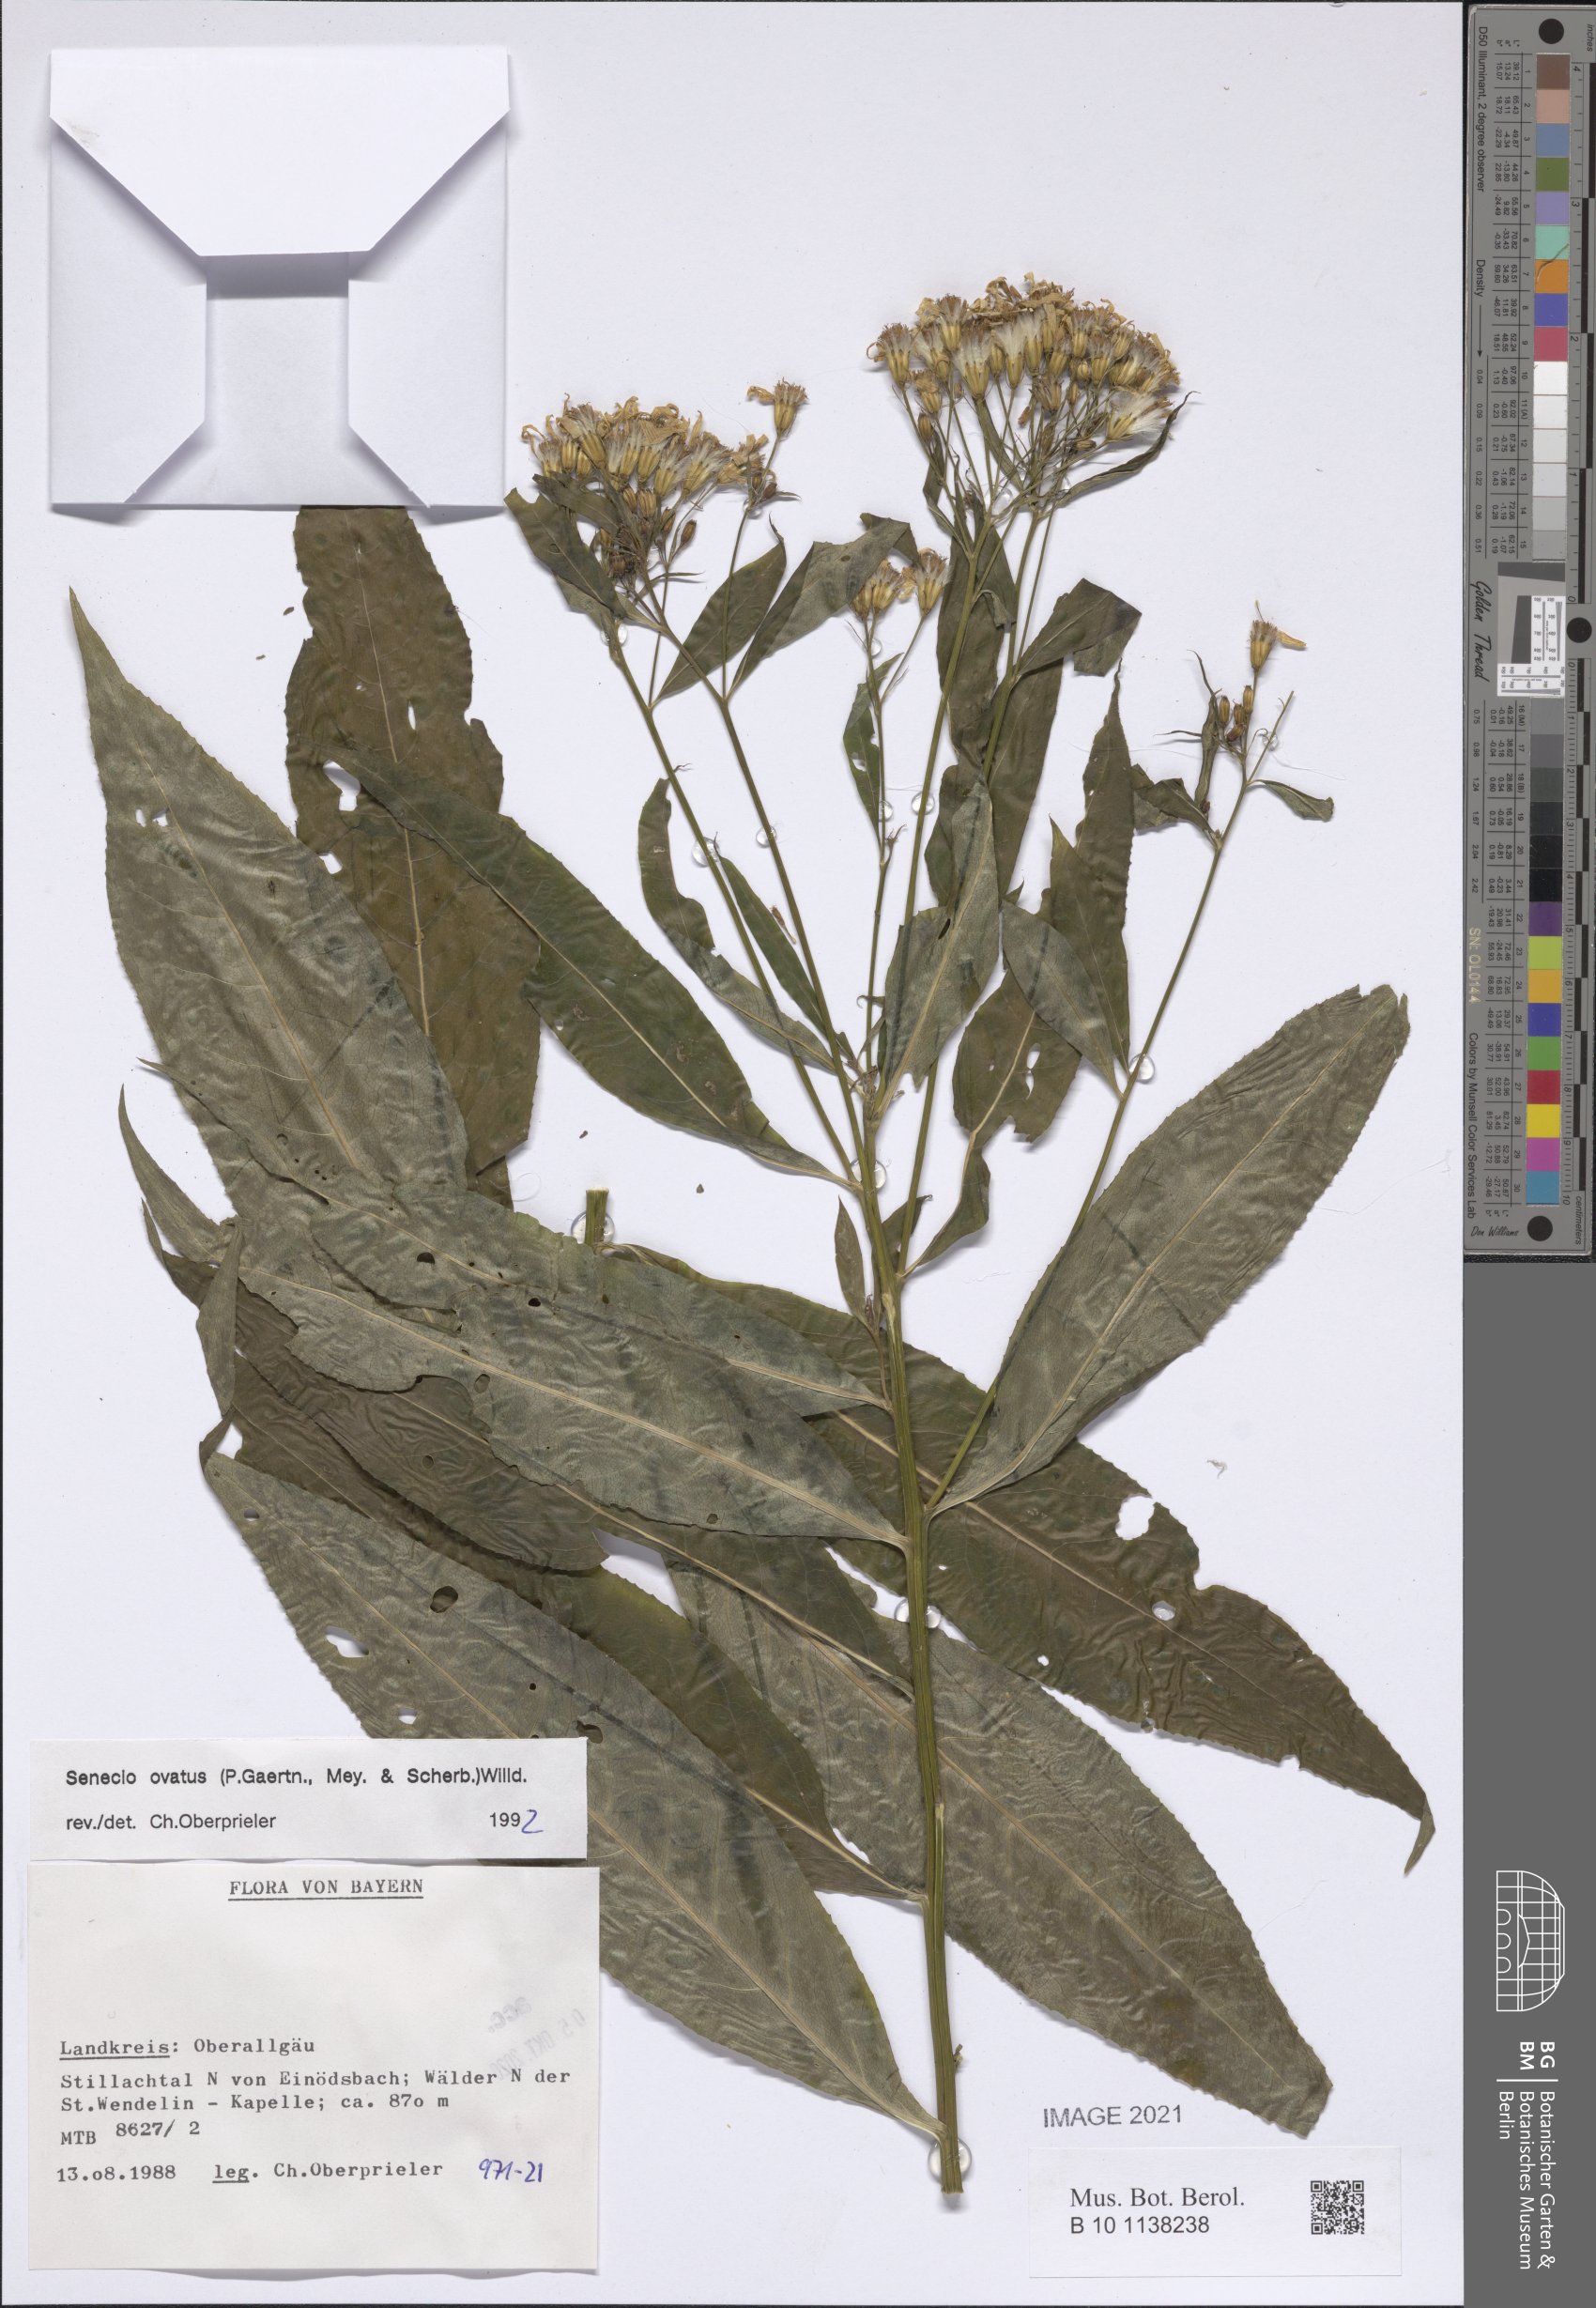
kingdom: Plantae
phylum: Tracheophyta
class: Magnoliopsida
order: Asterales
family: Asteraceae
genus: Senecio
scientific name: Senecio ovatus
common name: Wood ragwort
